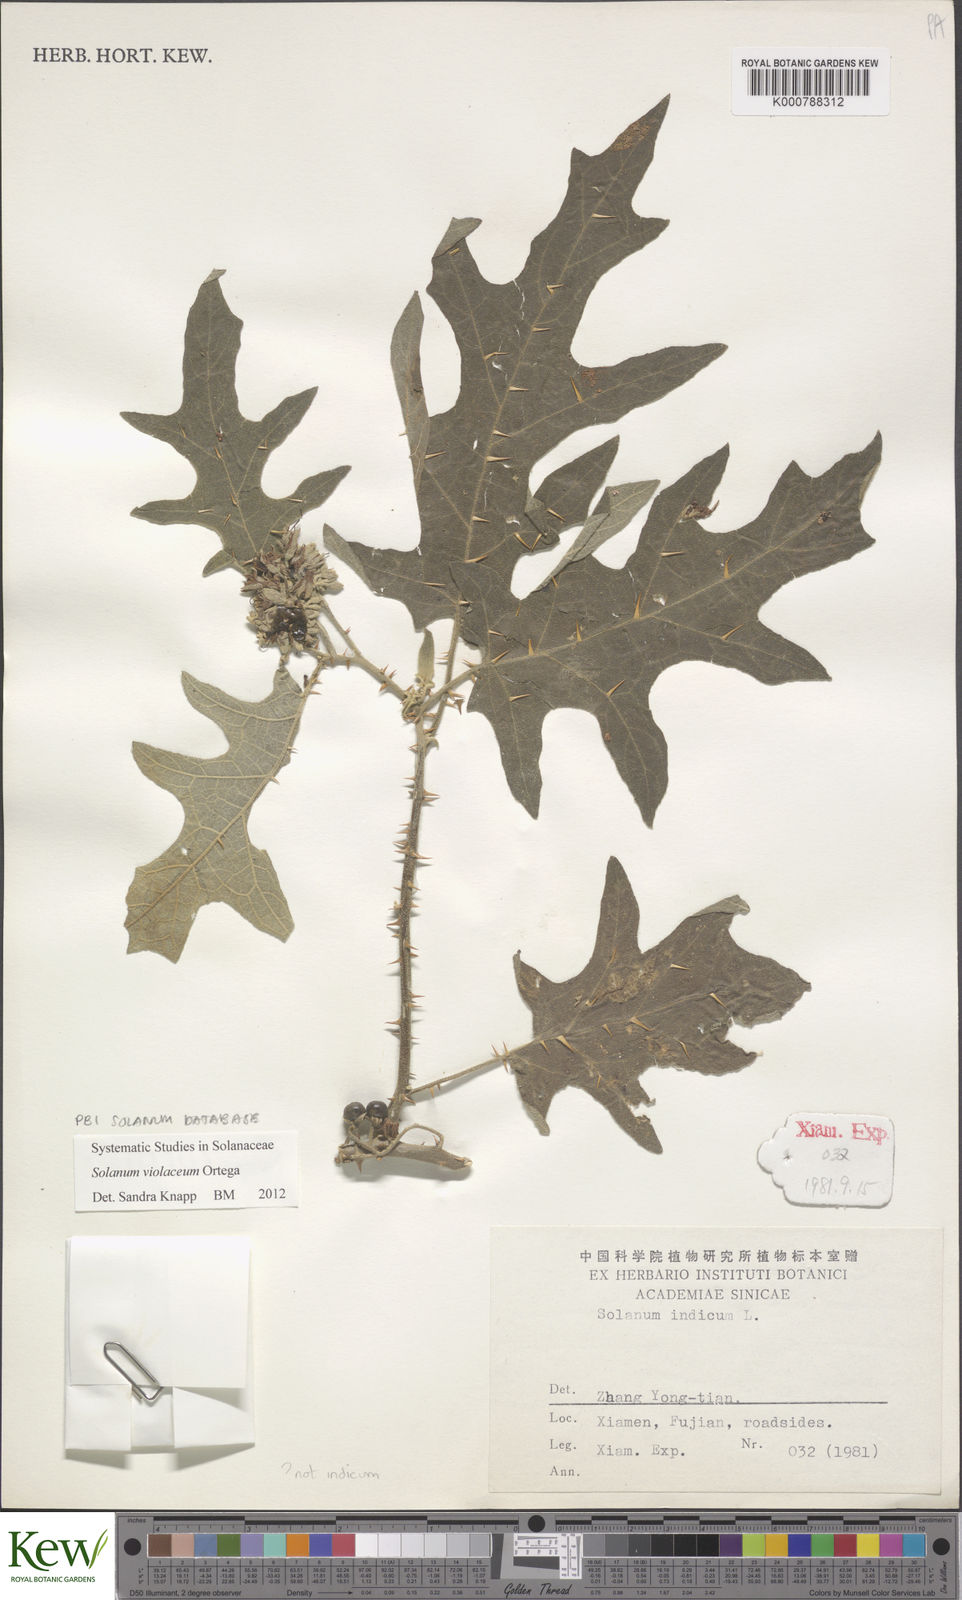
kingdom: Plantae
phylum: Tracheophyta
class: Magnoliopsida
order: Solanales
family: Solanaceae
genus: Solanum
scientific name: Solanum violaceum
